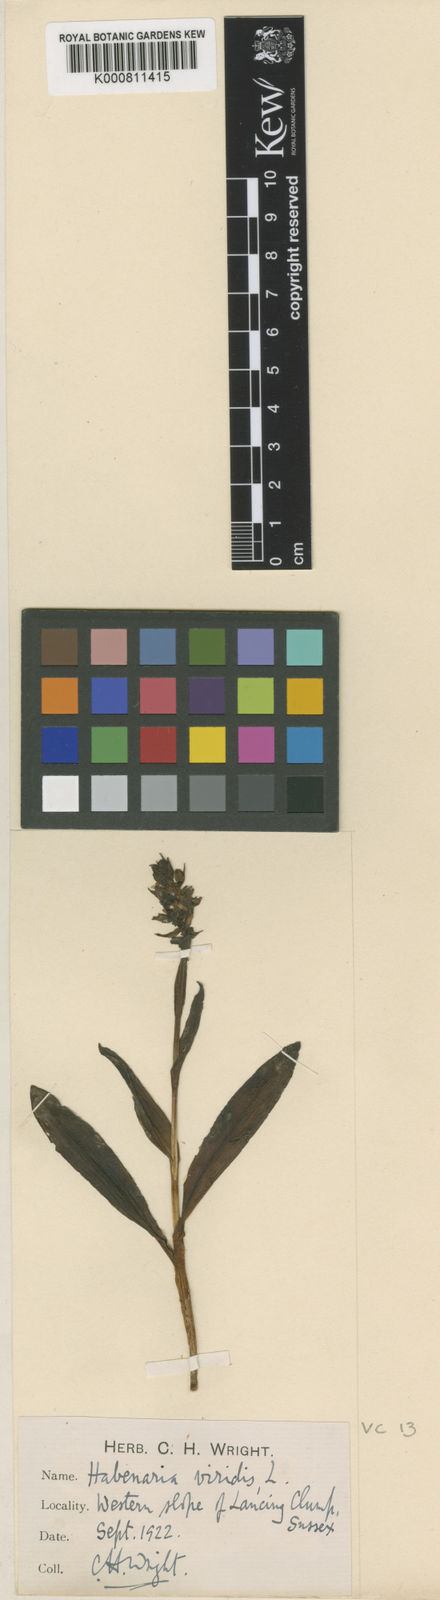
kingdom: Plantae
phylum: Tracheophyta
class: Liliopsida
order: Asparagales
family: Orchidaceae
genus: Dactylorhiza
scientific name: Dactylorhiza viridis
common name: Longbract frog orchid
